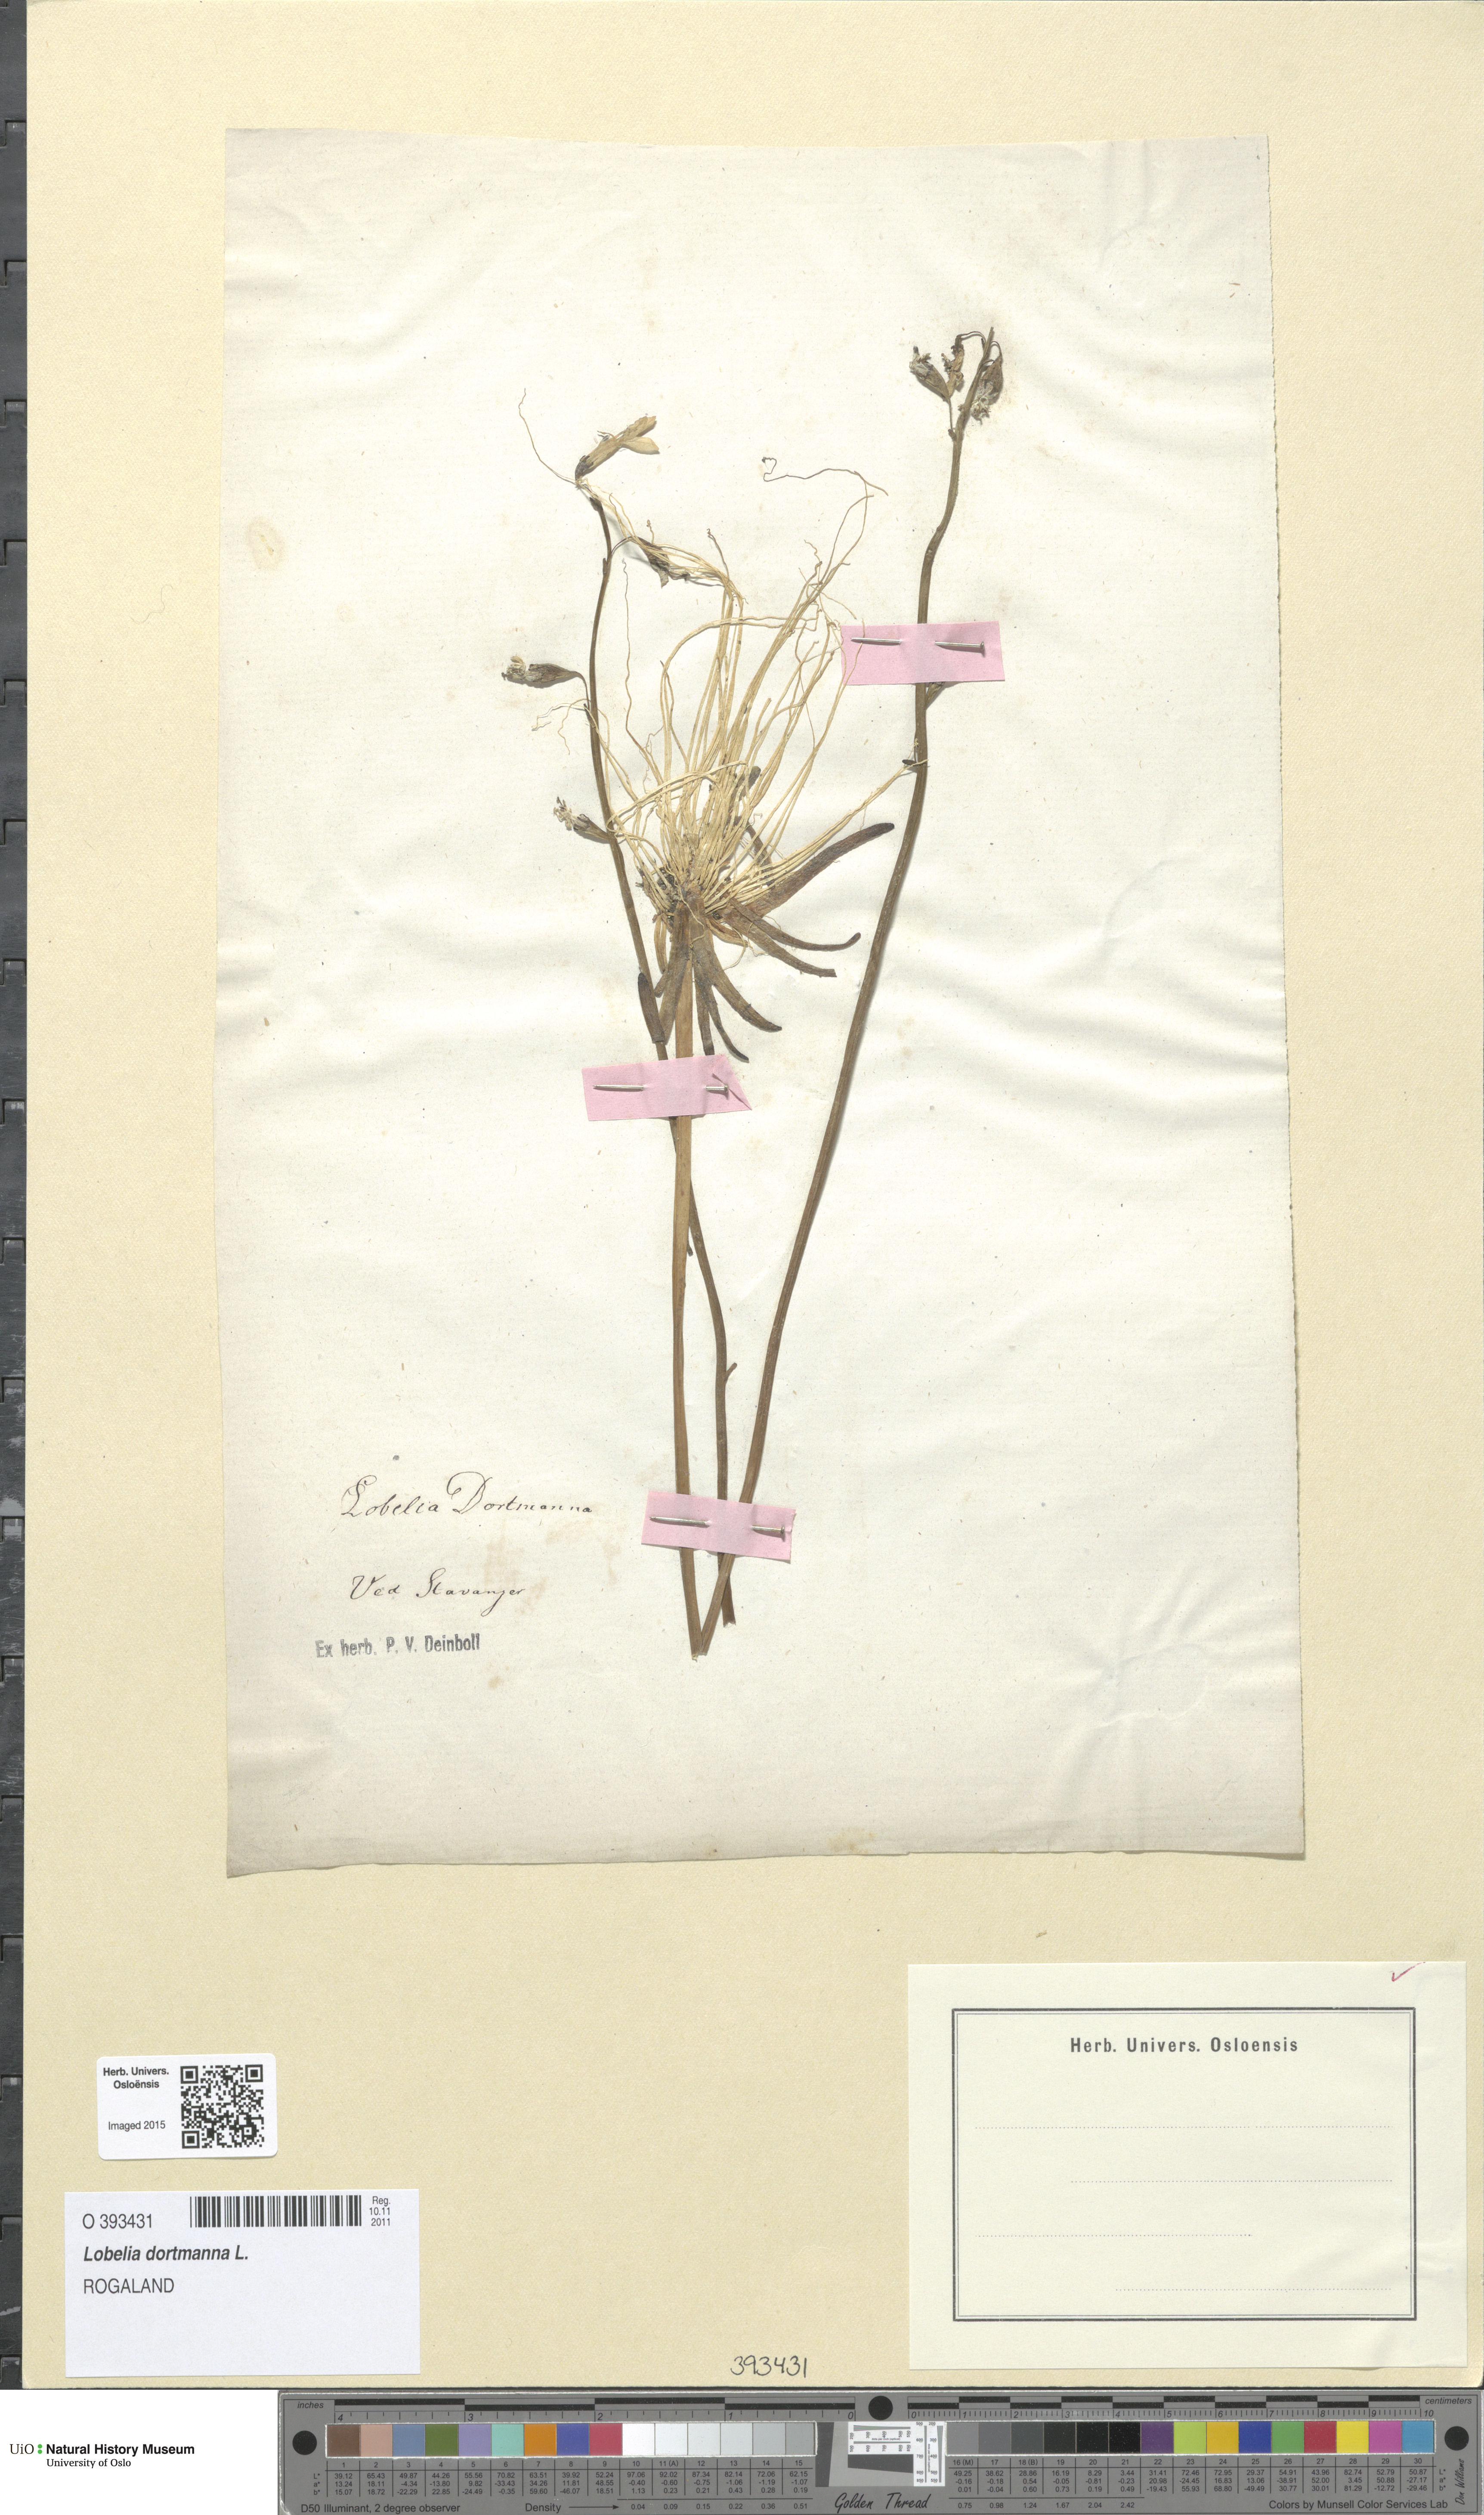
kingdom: Plantae
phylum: Tracheophyta
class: Magnoliopsida
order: Asterales
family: Campanulaceae
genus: Lobelia
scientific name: Lobelia dortmanna
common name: Water lobelia
